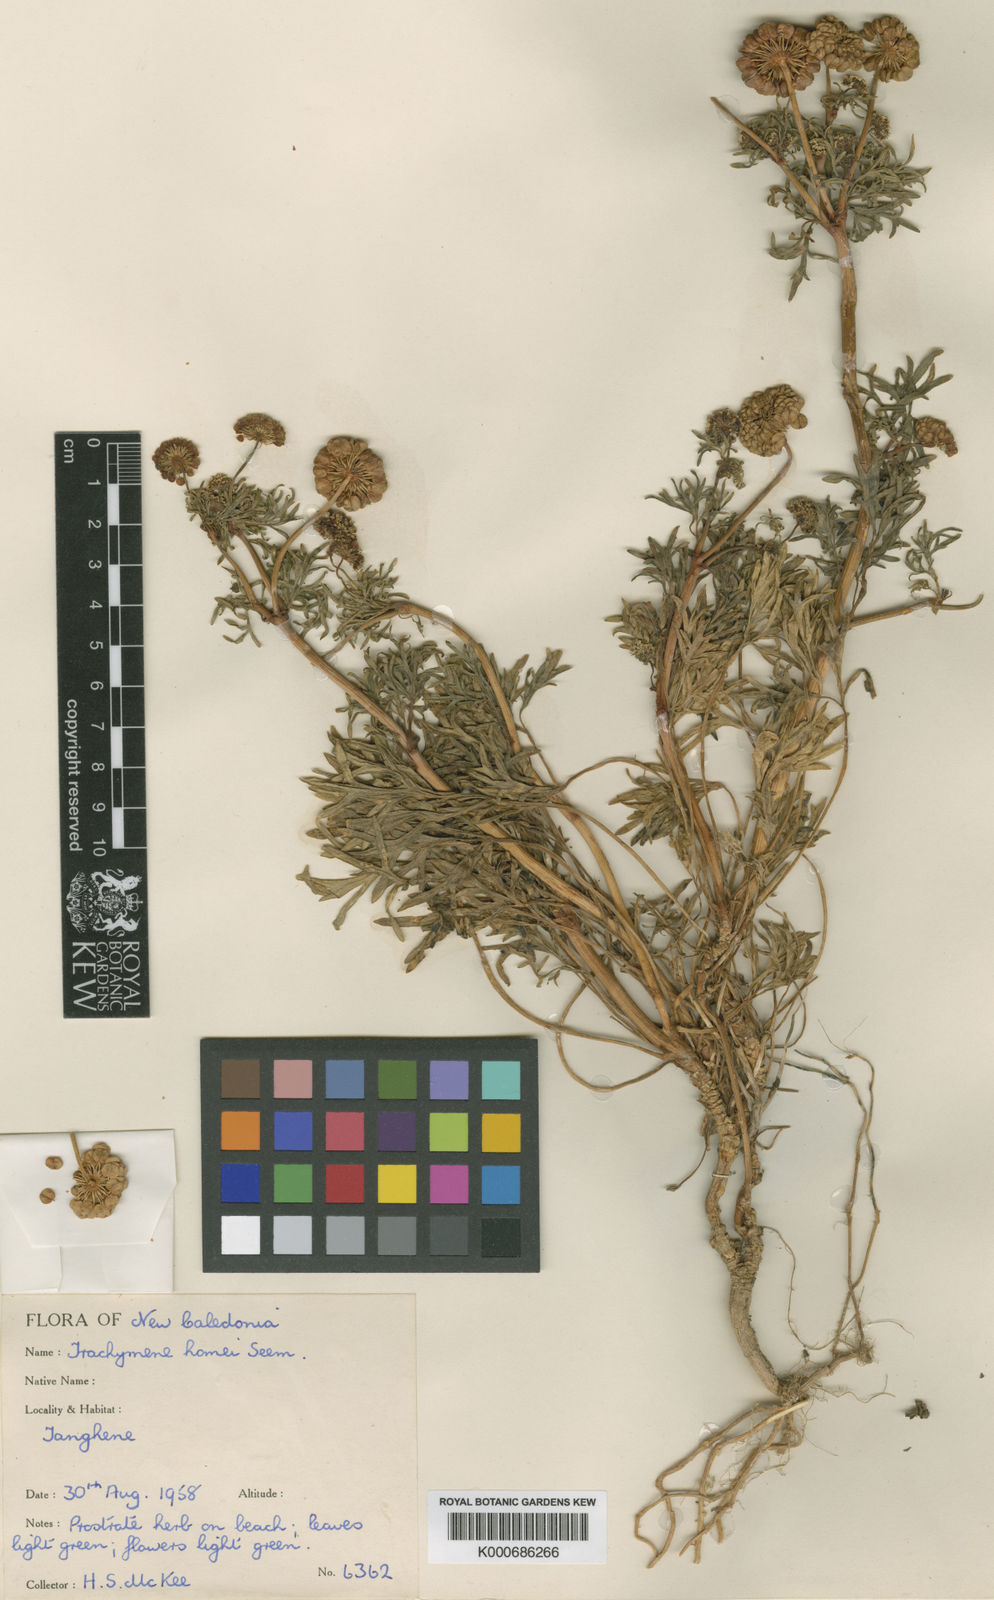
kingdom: Plantae
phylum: Tracheophyta
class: Magnoliopsida
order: Apiales
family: Araliaceae
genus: Trachymene
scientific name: Trachymene cussonii
